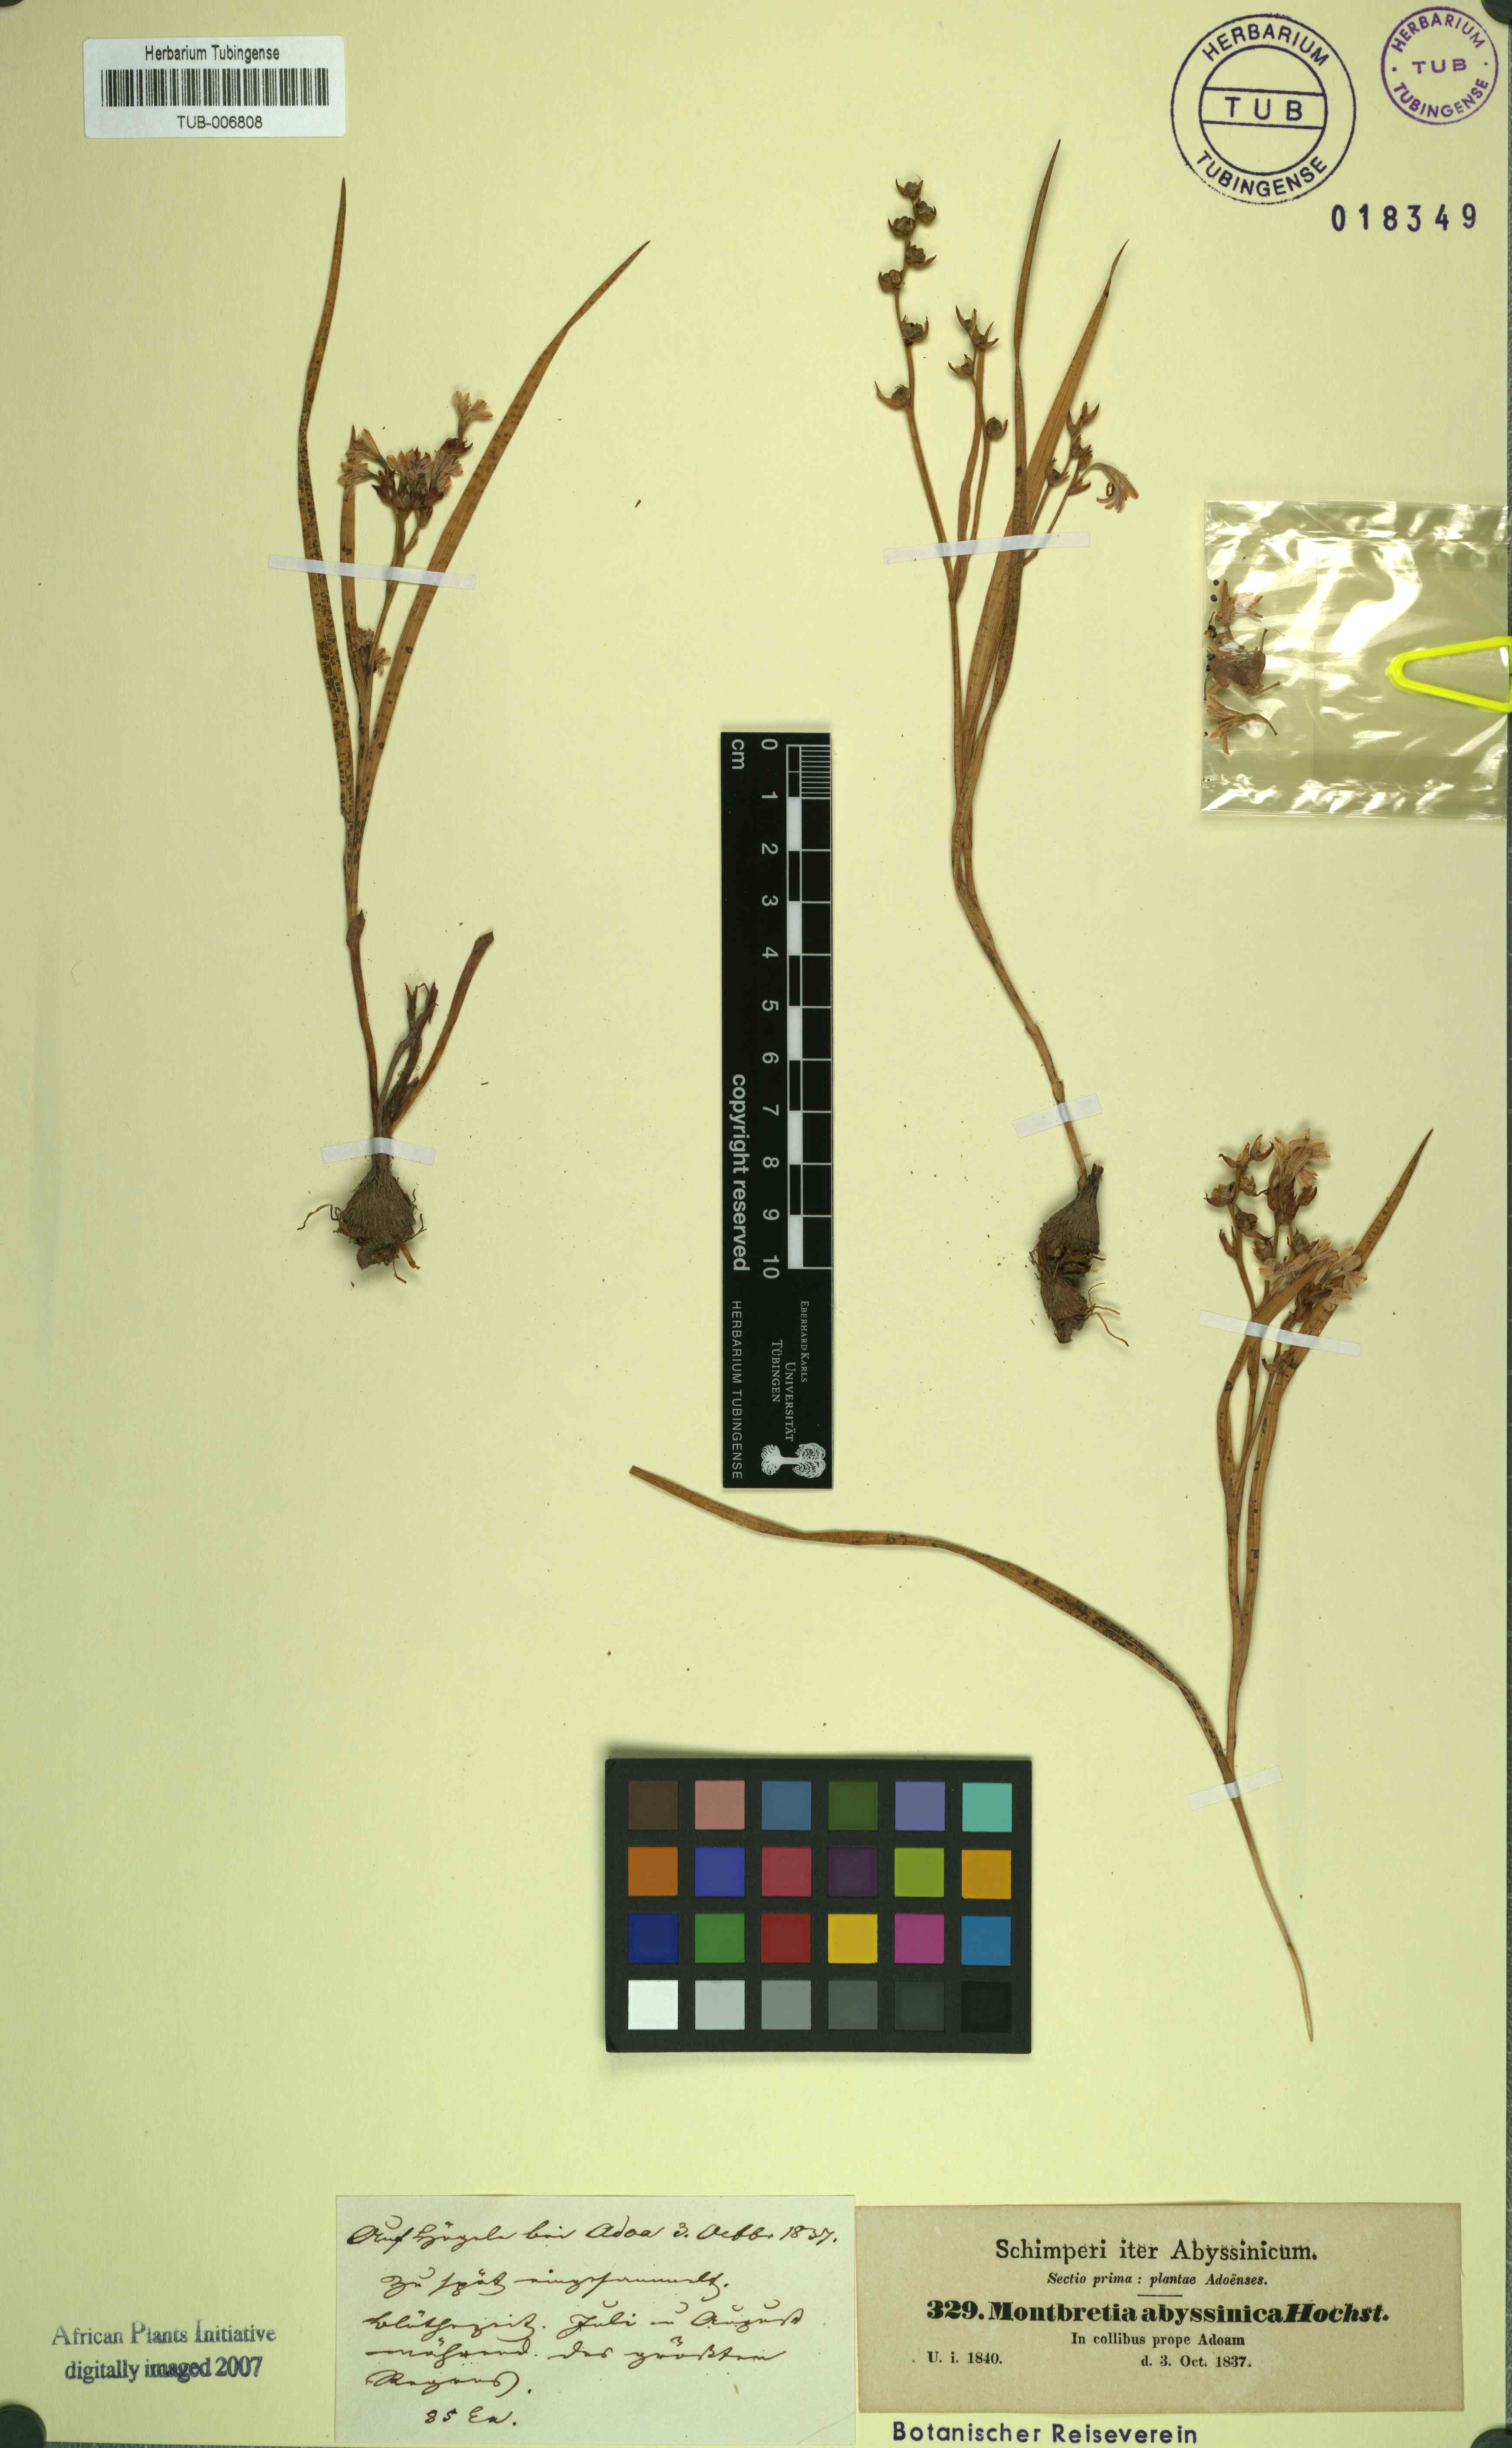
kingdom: Plantae
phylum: Tracheophyta
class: Liliopsida
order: Asparagales
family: Iridaceae
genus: Afrosolen
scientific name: Afrosolen abyssinicus
